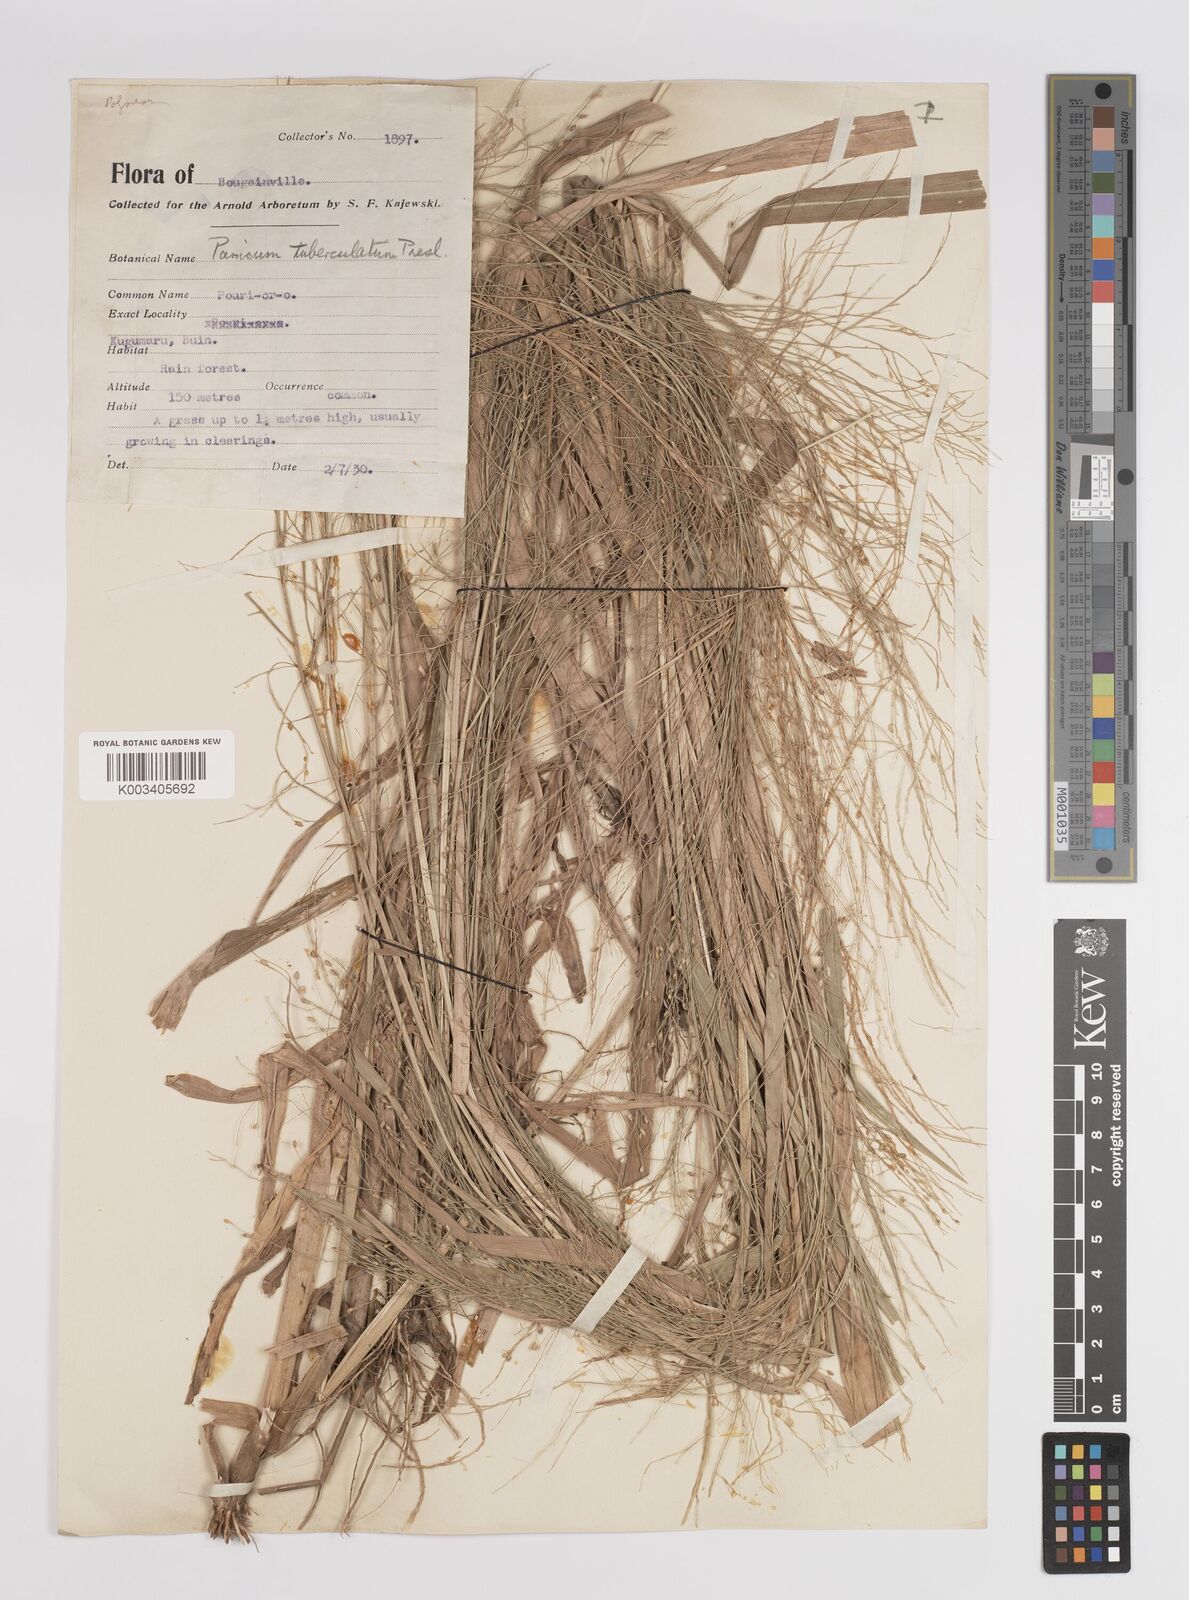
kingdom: Plantae
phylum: Tracheophyta
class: Liliopsida
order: Poales
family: Poaceae
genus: Panicum
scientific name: Panicum luzonense
